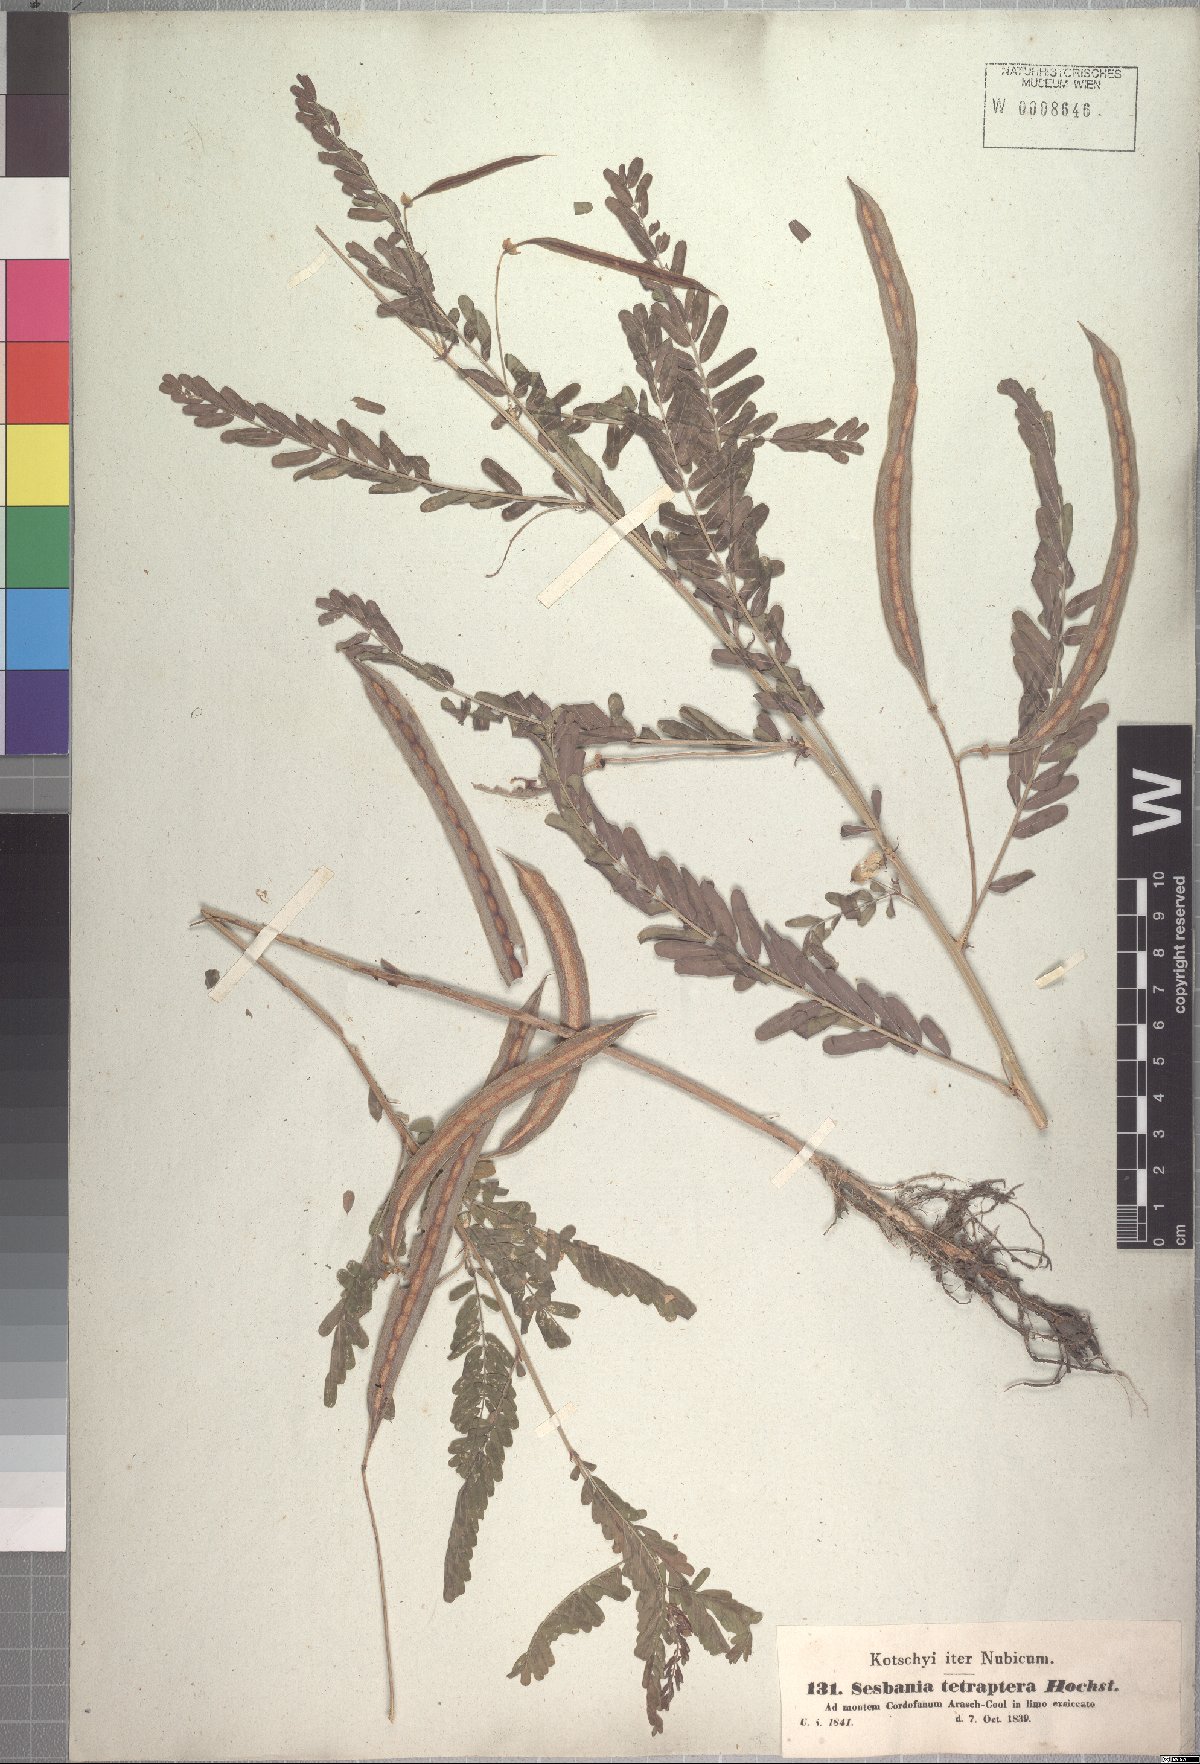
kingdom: Plantae
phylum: Tracheophyta
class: Magnoliopsida
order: Fabales
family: Fabaceae
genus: Sesbania
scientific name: Sesbania tetraptera
